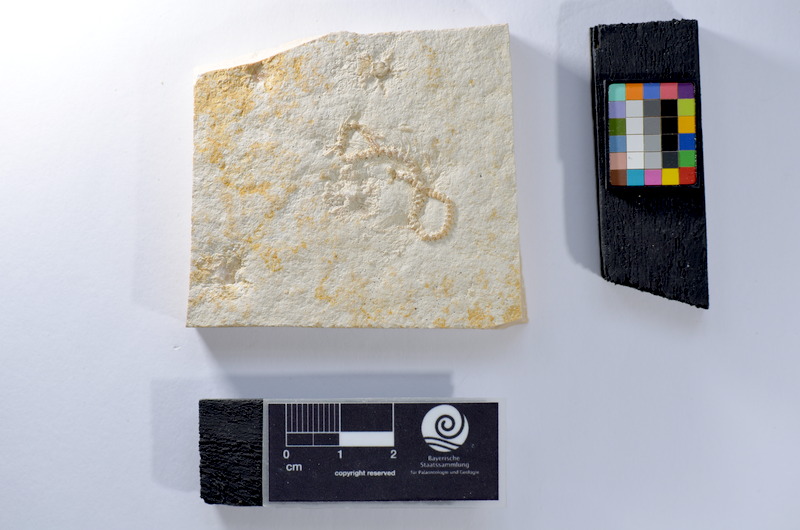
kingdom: Animalia
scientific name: Animalia
